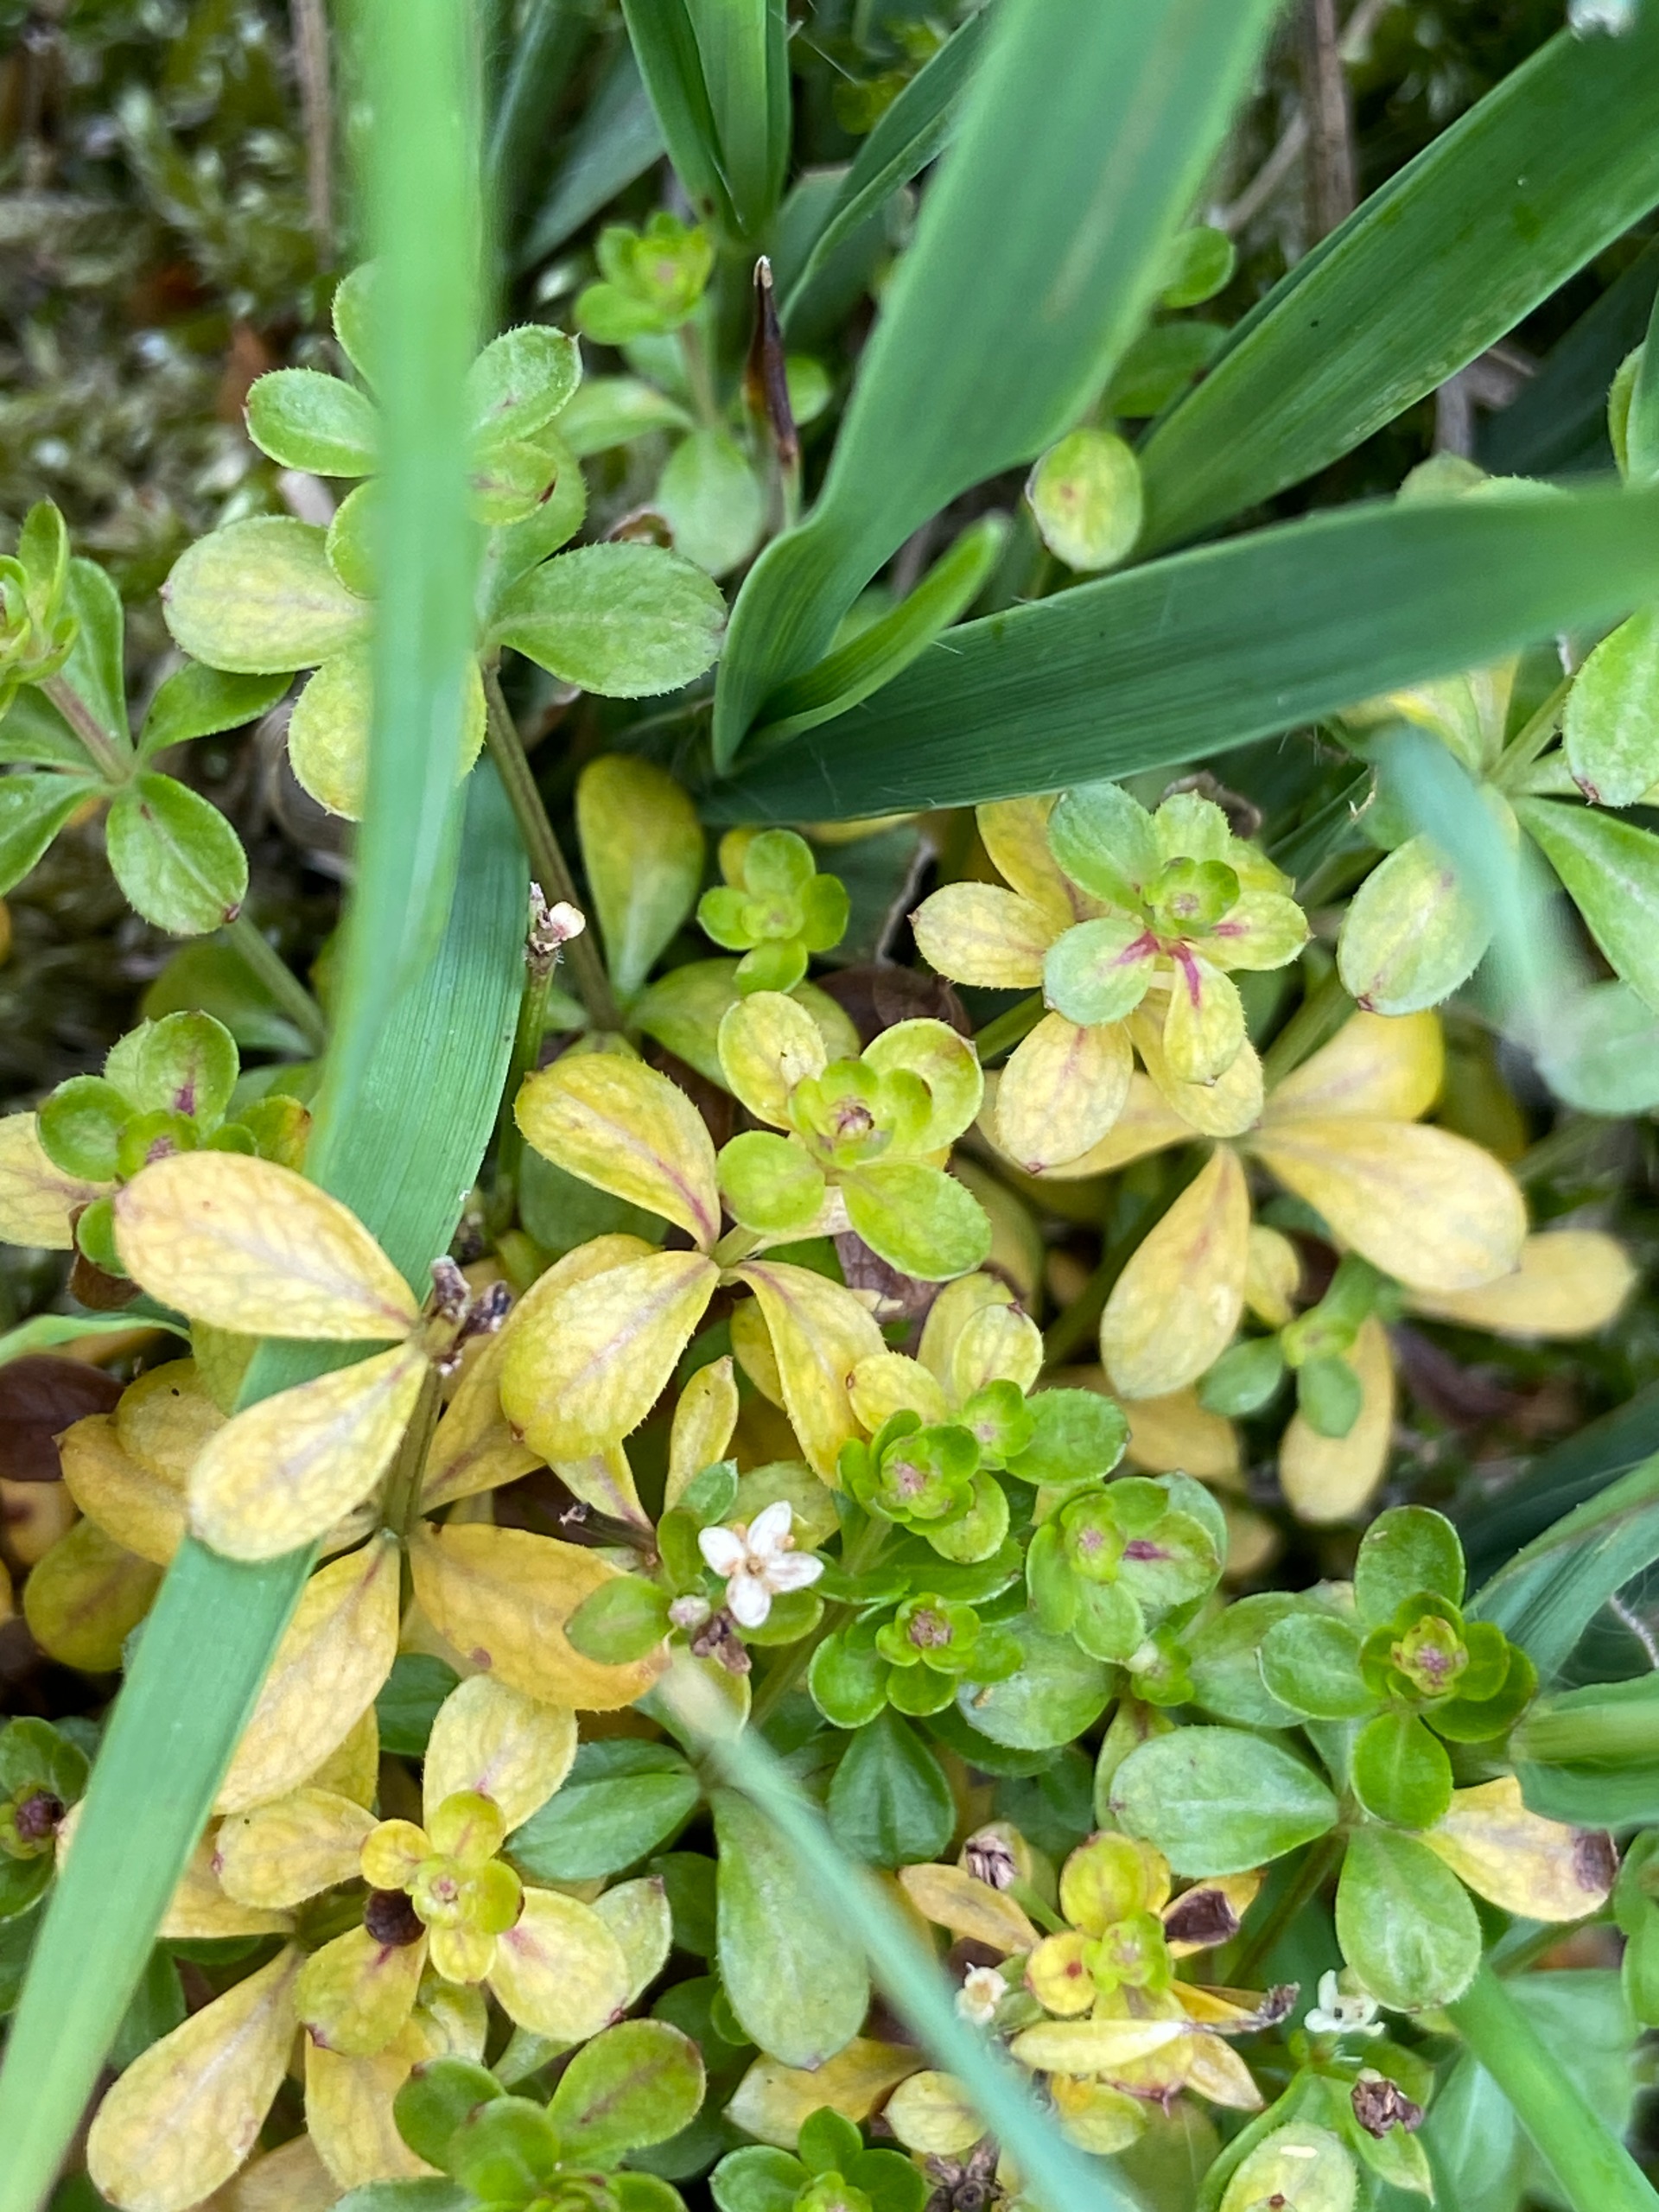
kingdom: Plantae
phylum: Tracheophyta
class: Magnoliopsida
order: Gentianales
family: Rubiaceae
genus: Galium
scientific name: Galium saxatile
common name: Lyng-snerre
